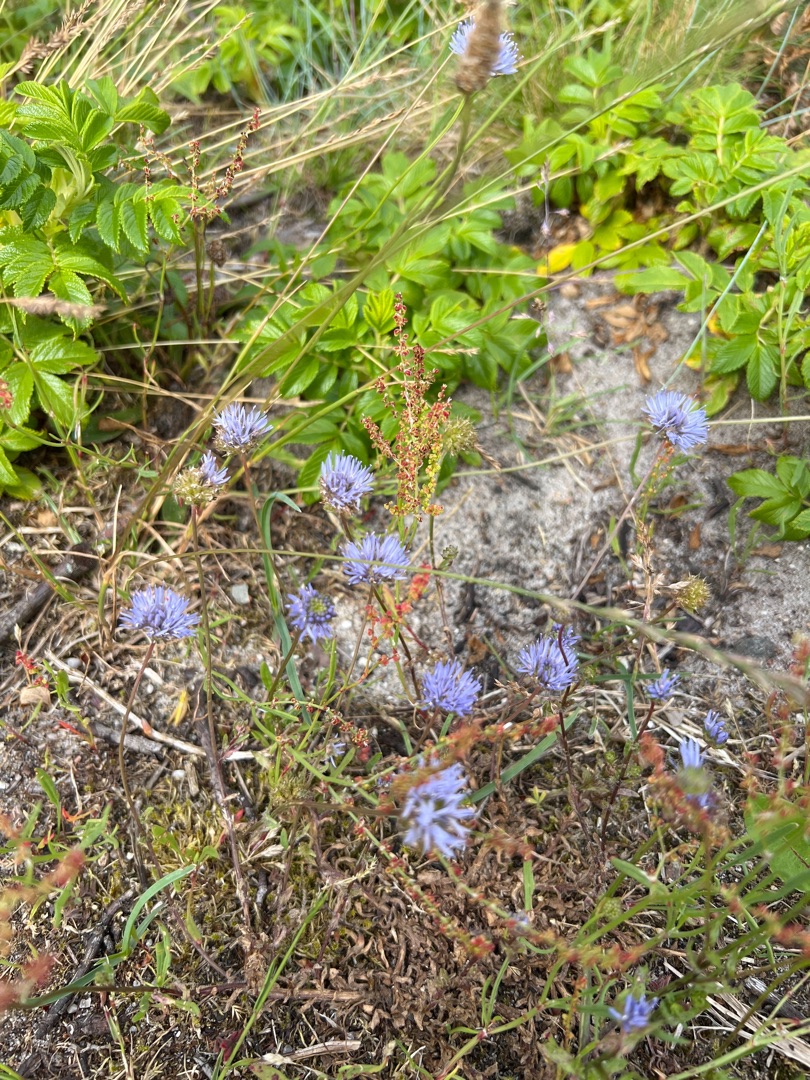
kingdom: Plantae
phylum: Tracheophyta
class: Magnoliopsida
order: Asterales
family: Campanulaceae
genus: Jasione
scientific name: Jasione montana
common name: Blåmunke
